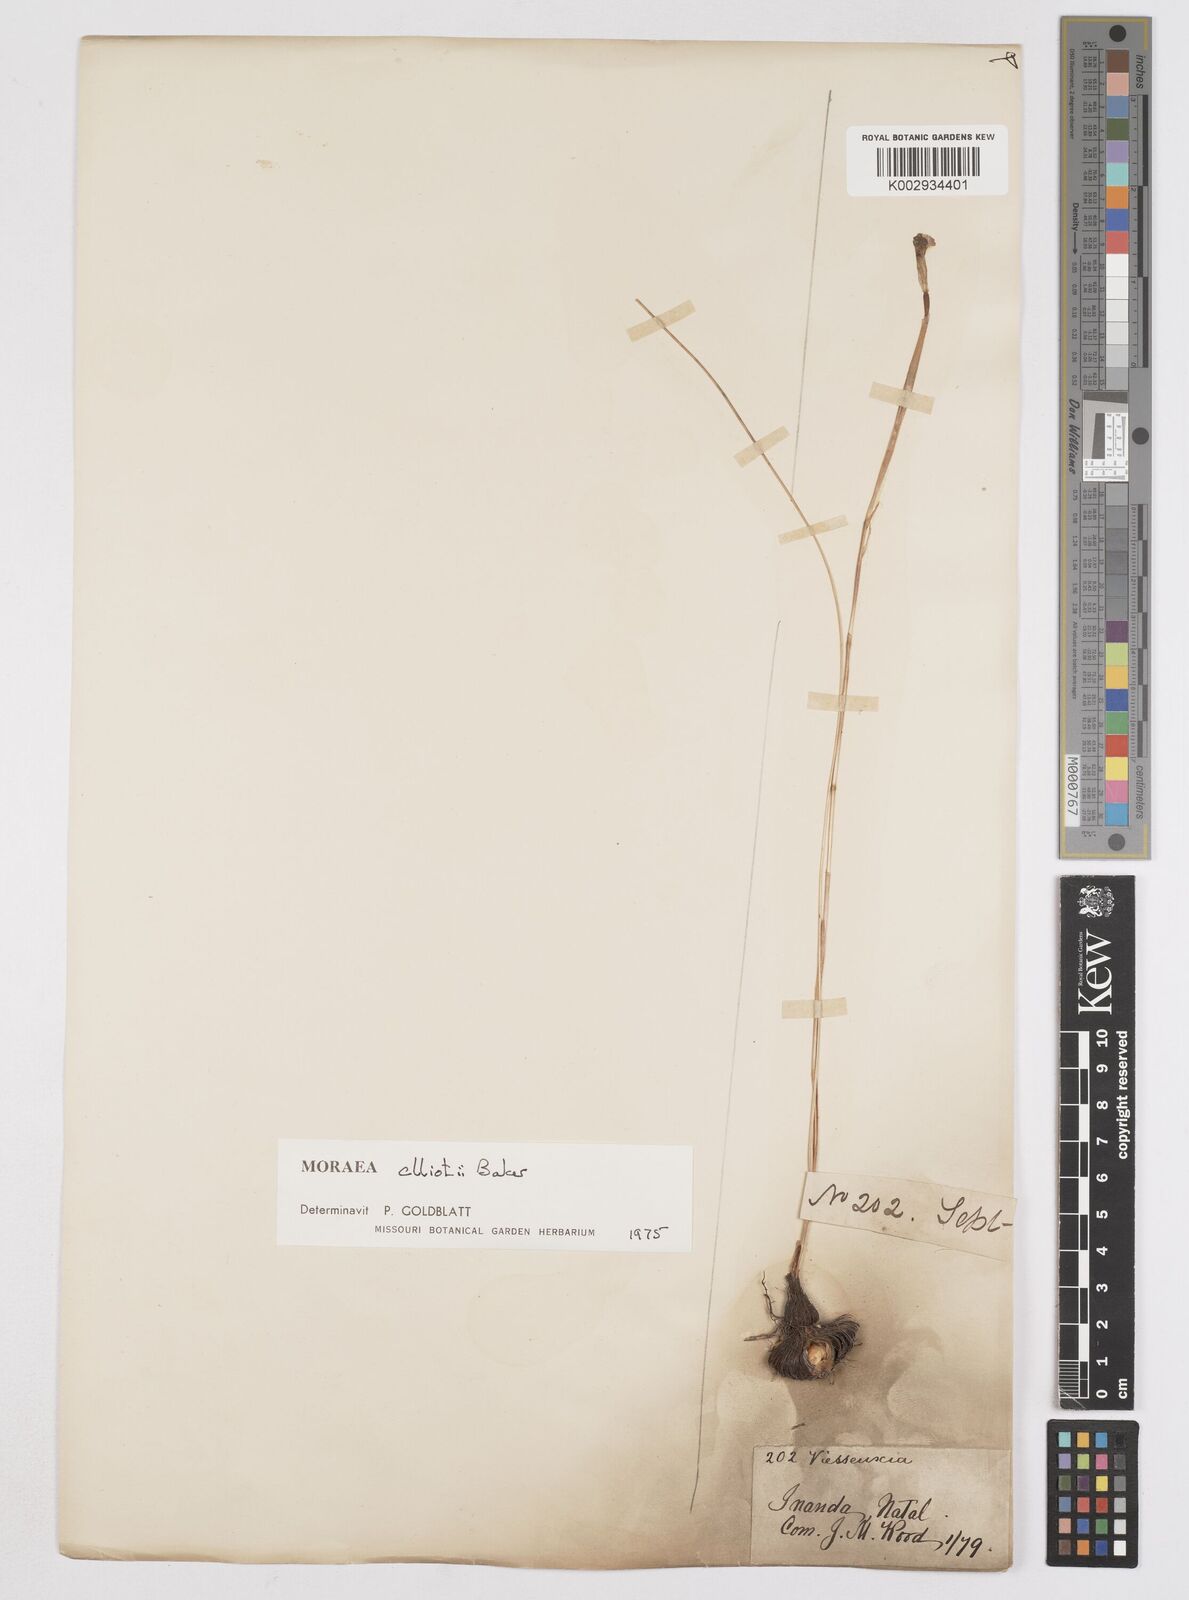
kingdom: Plantae
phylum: Tracheophyta
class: Liliopsida
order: Asparagales
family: Iridaceae
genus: Moraea
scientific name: Moraea elliotii
